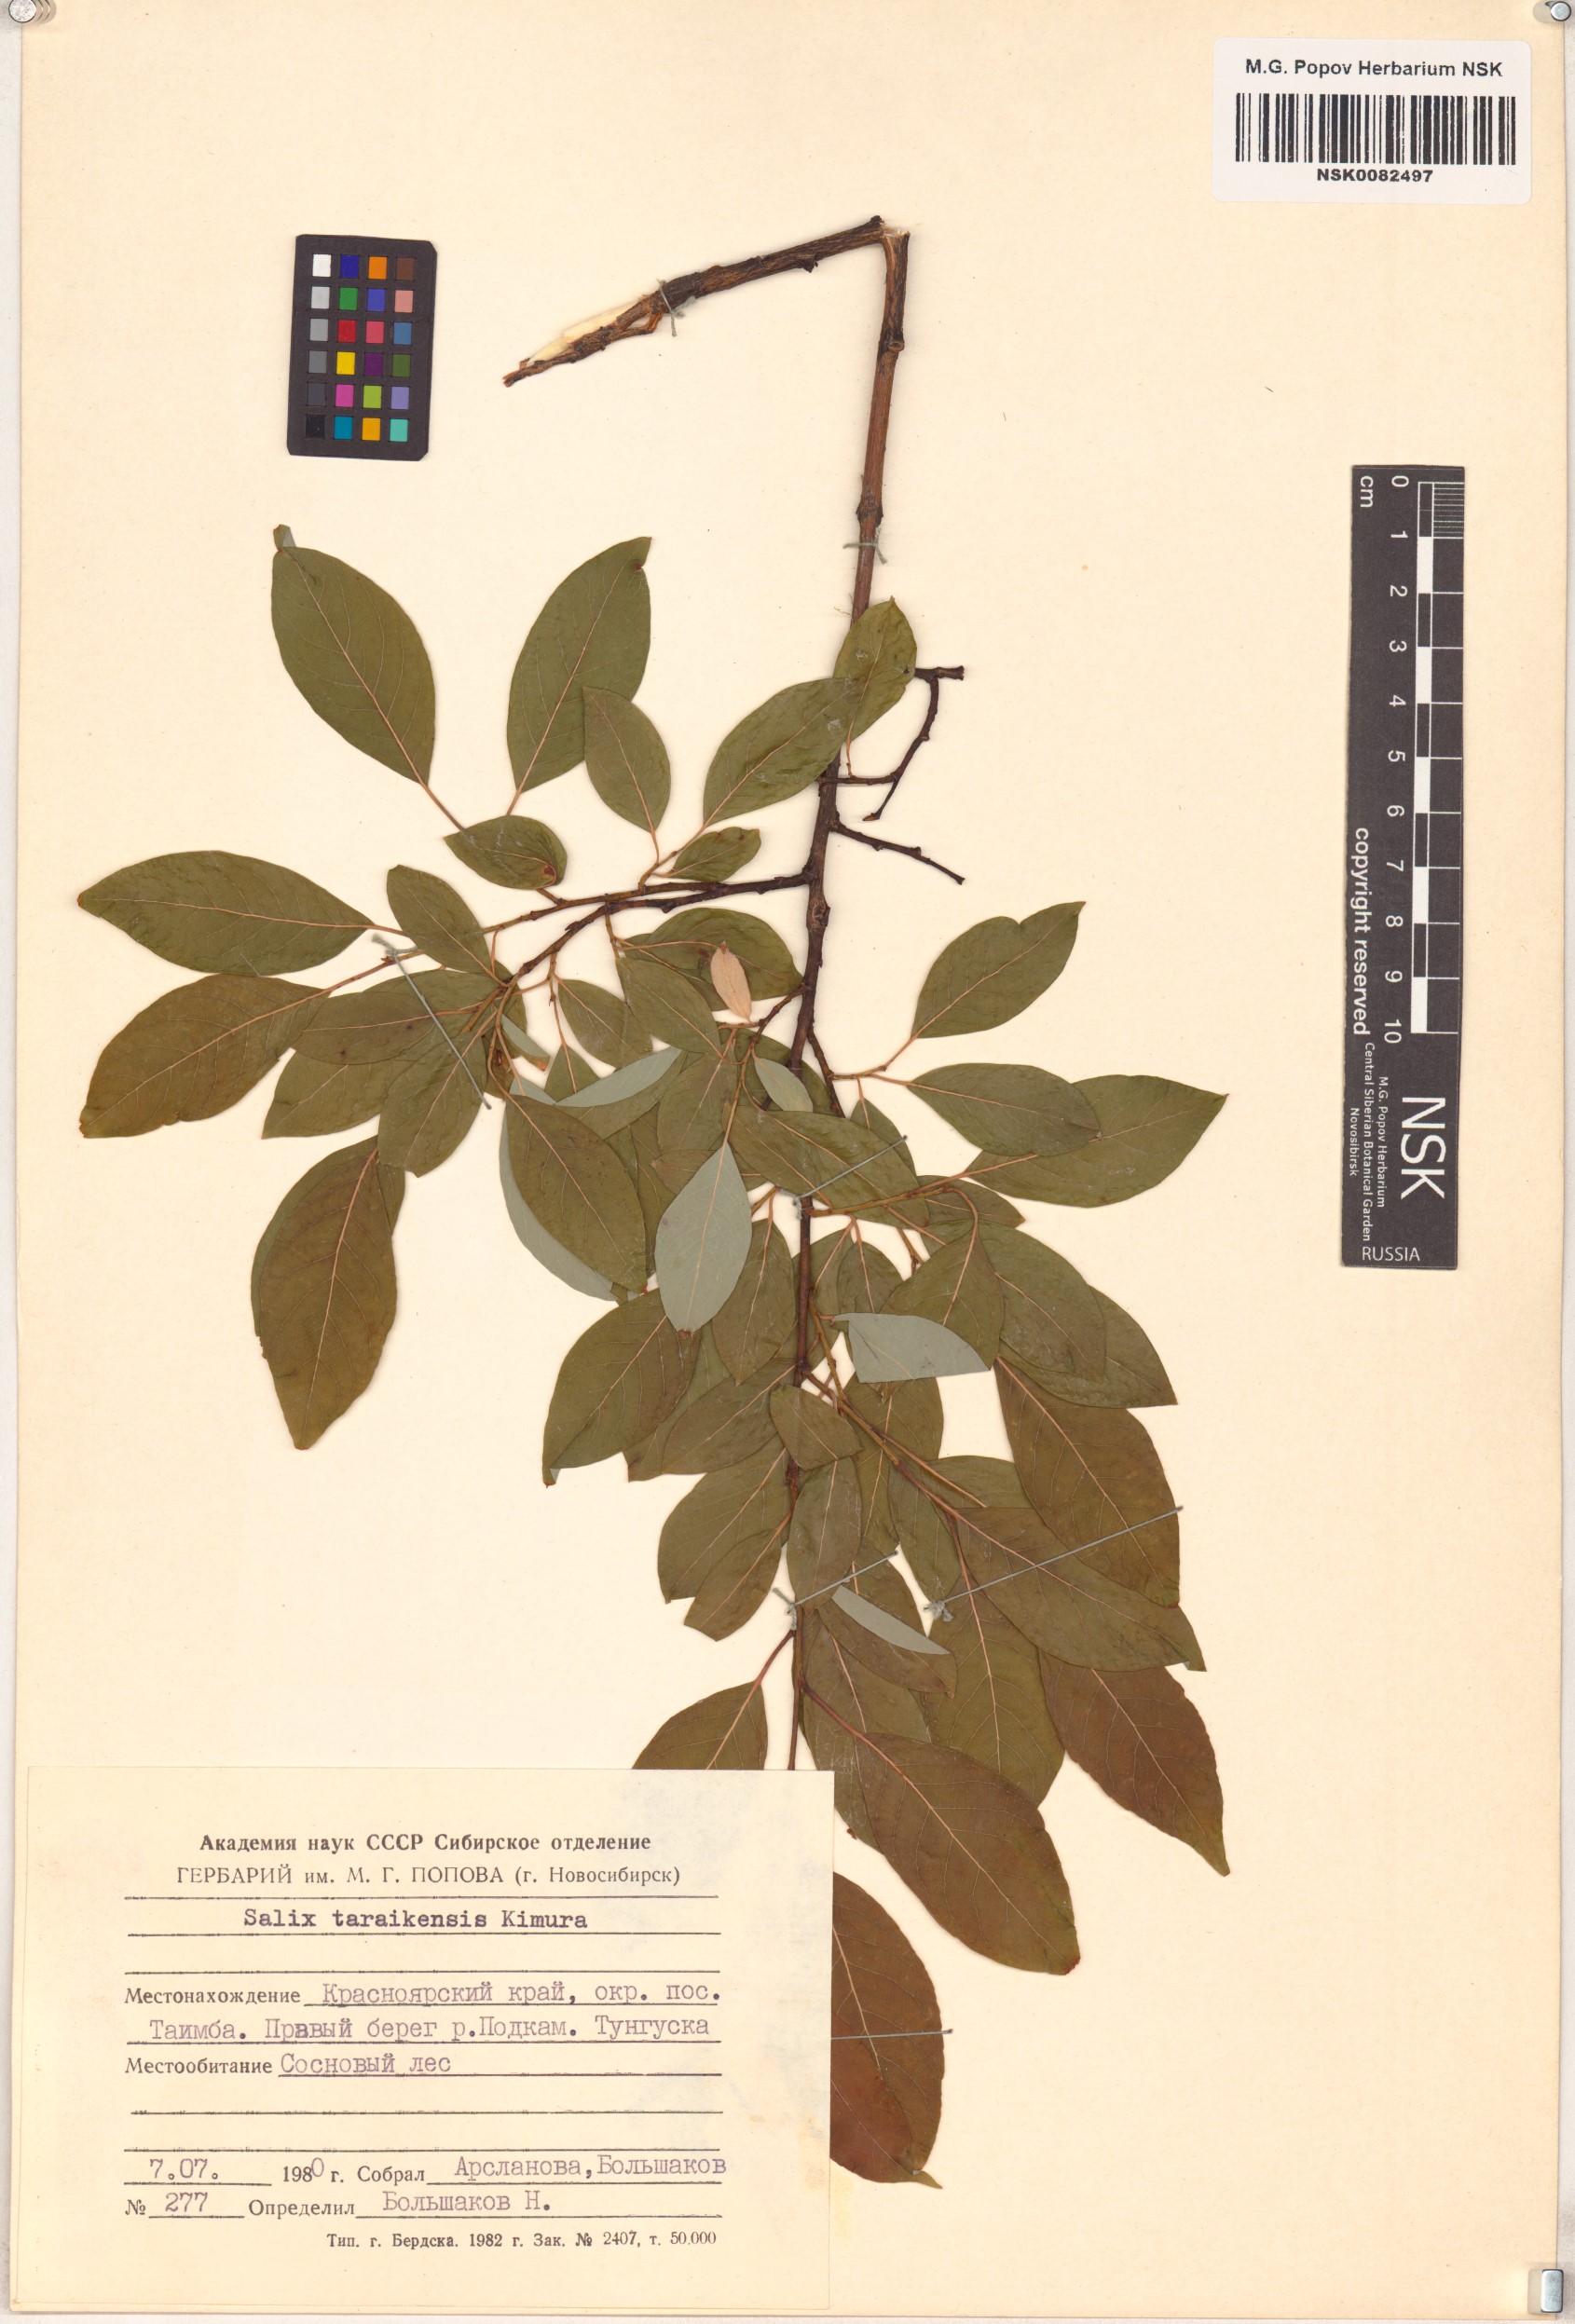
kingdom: Plantae
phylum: Tracheophyta
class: Magnoliopsida
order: Malpighiales
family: Salicaceae
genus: Salix
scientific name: Salix taraikensis
